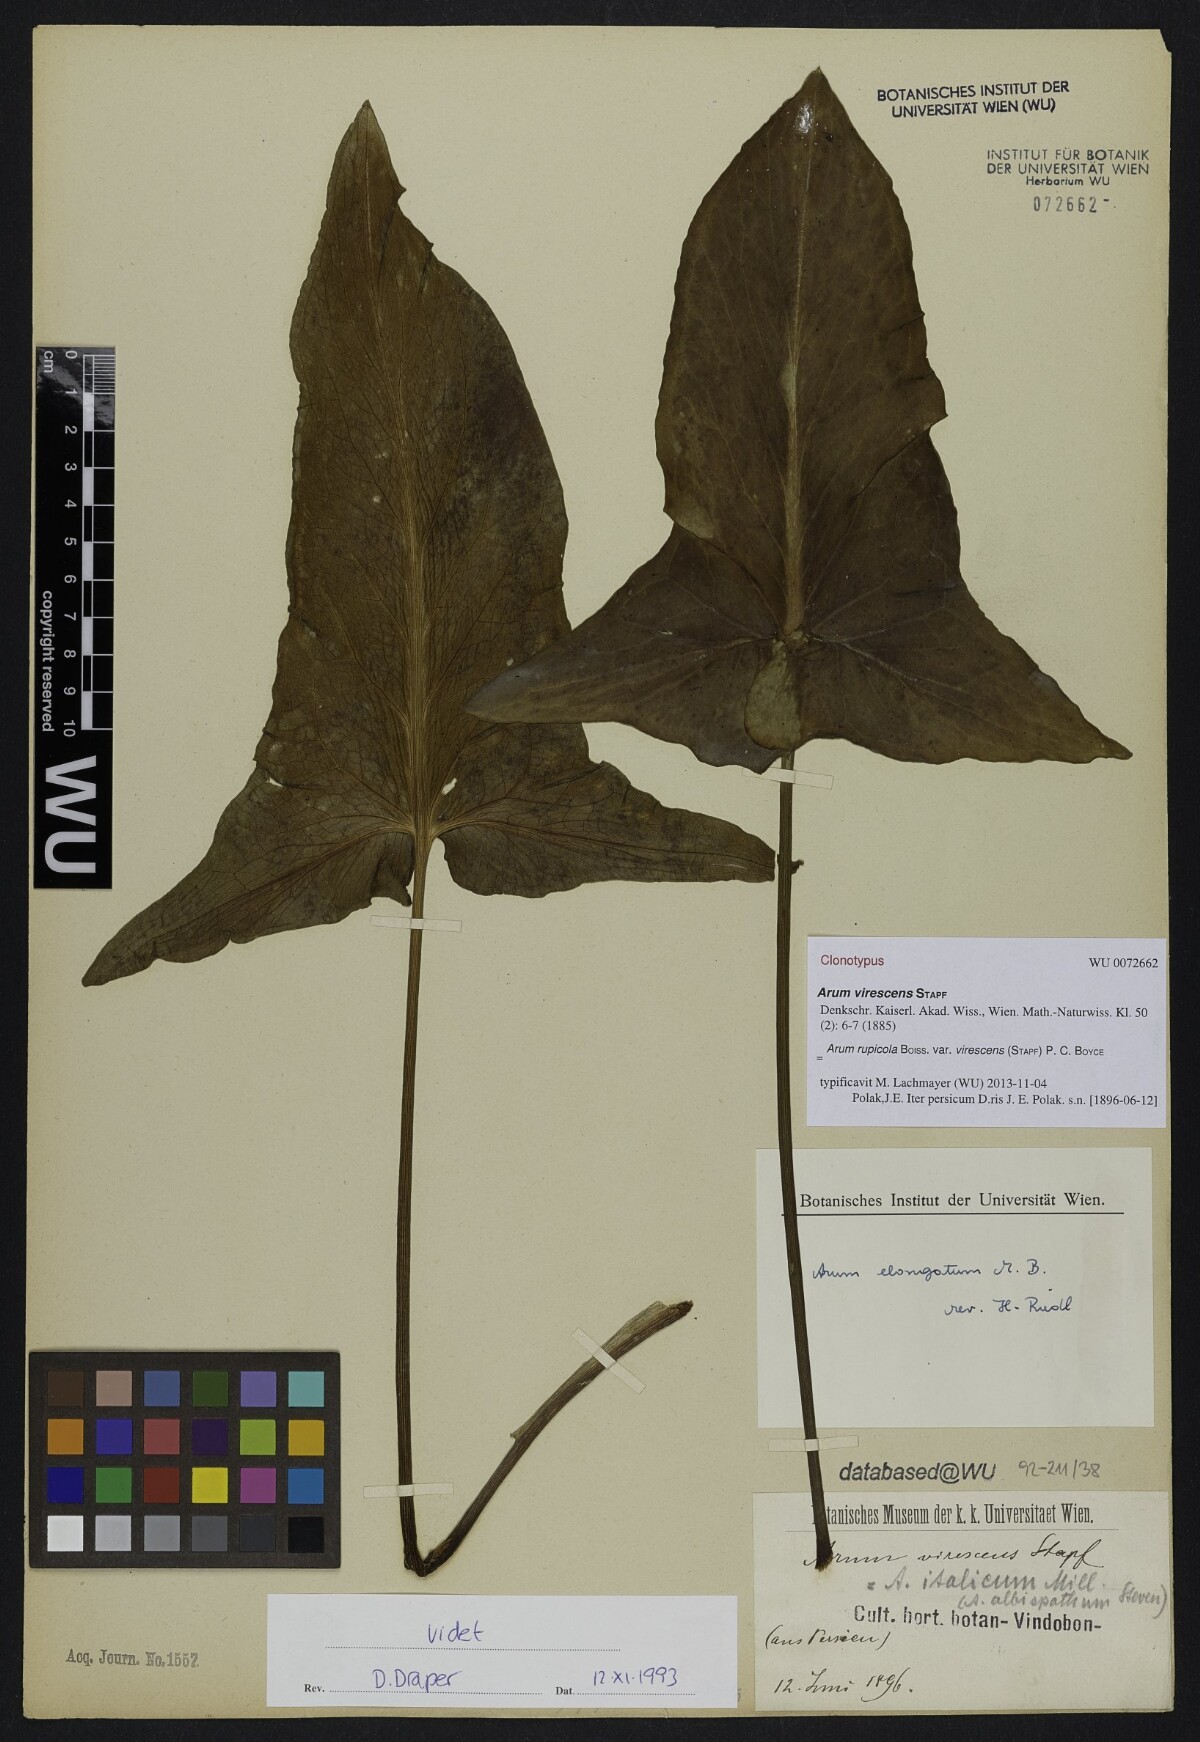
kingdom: Plantae
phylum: Tracheophyta
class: Liliopsida
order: Alismatales
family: Araceae
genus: Arum
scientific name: Arum rupicola
